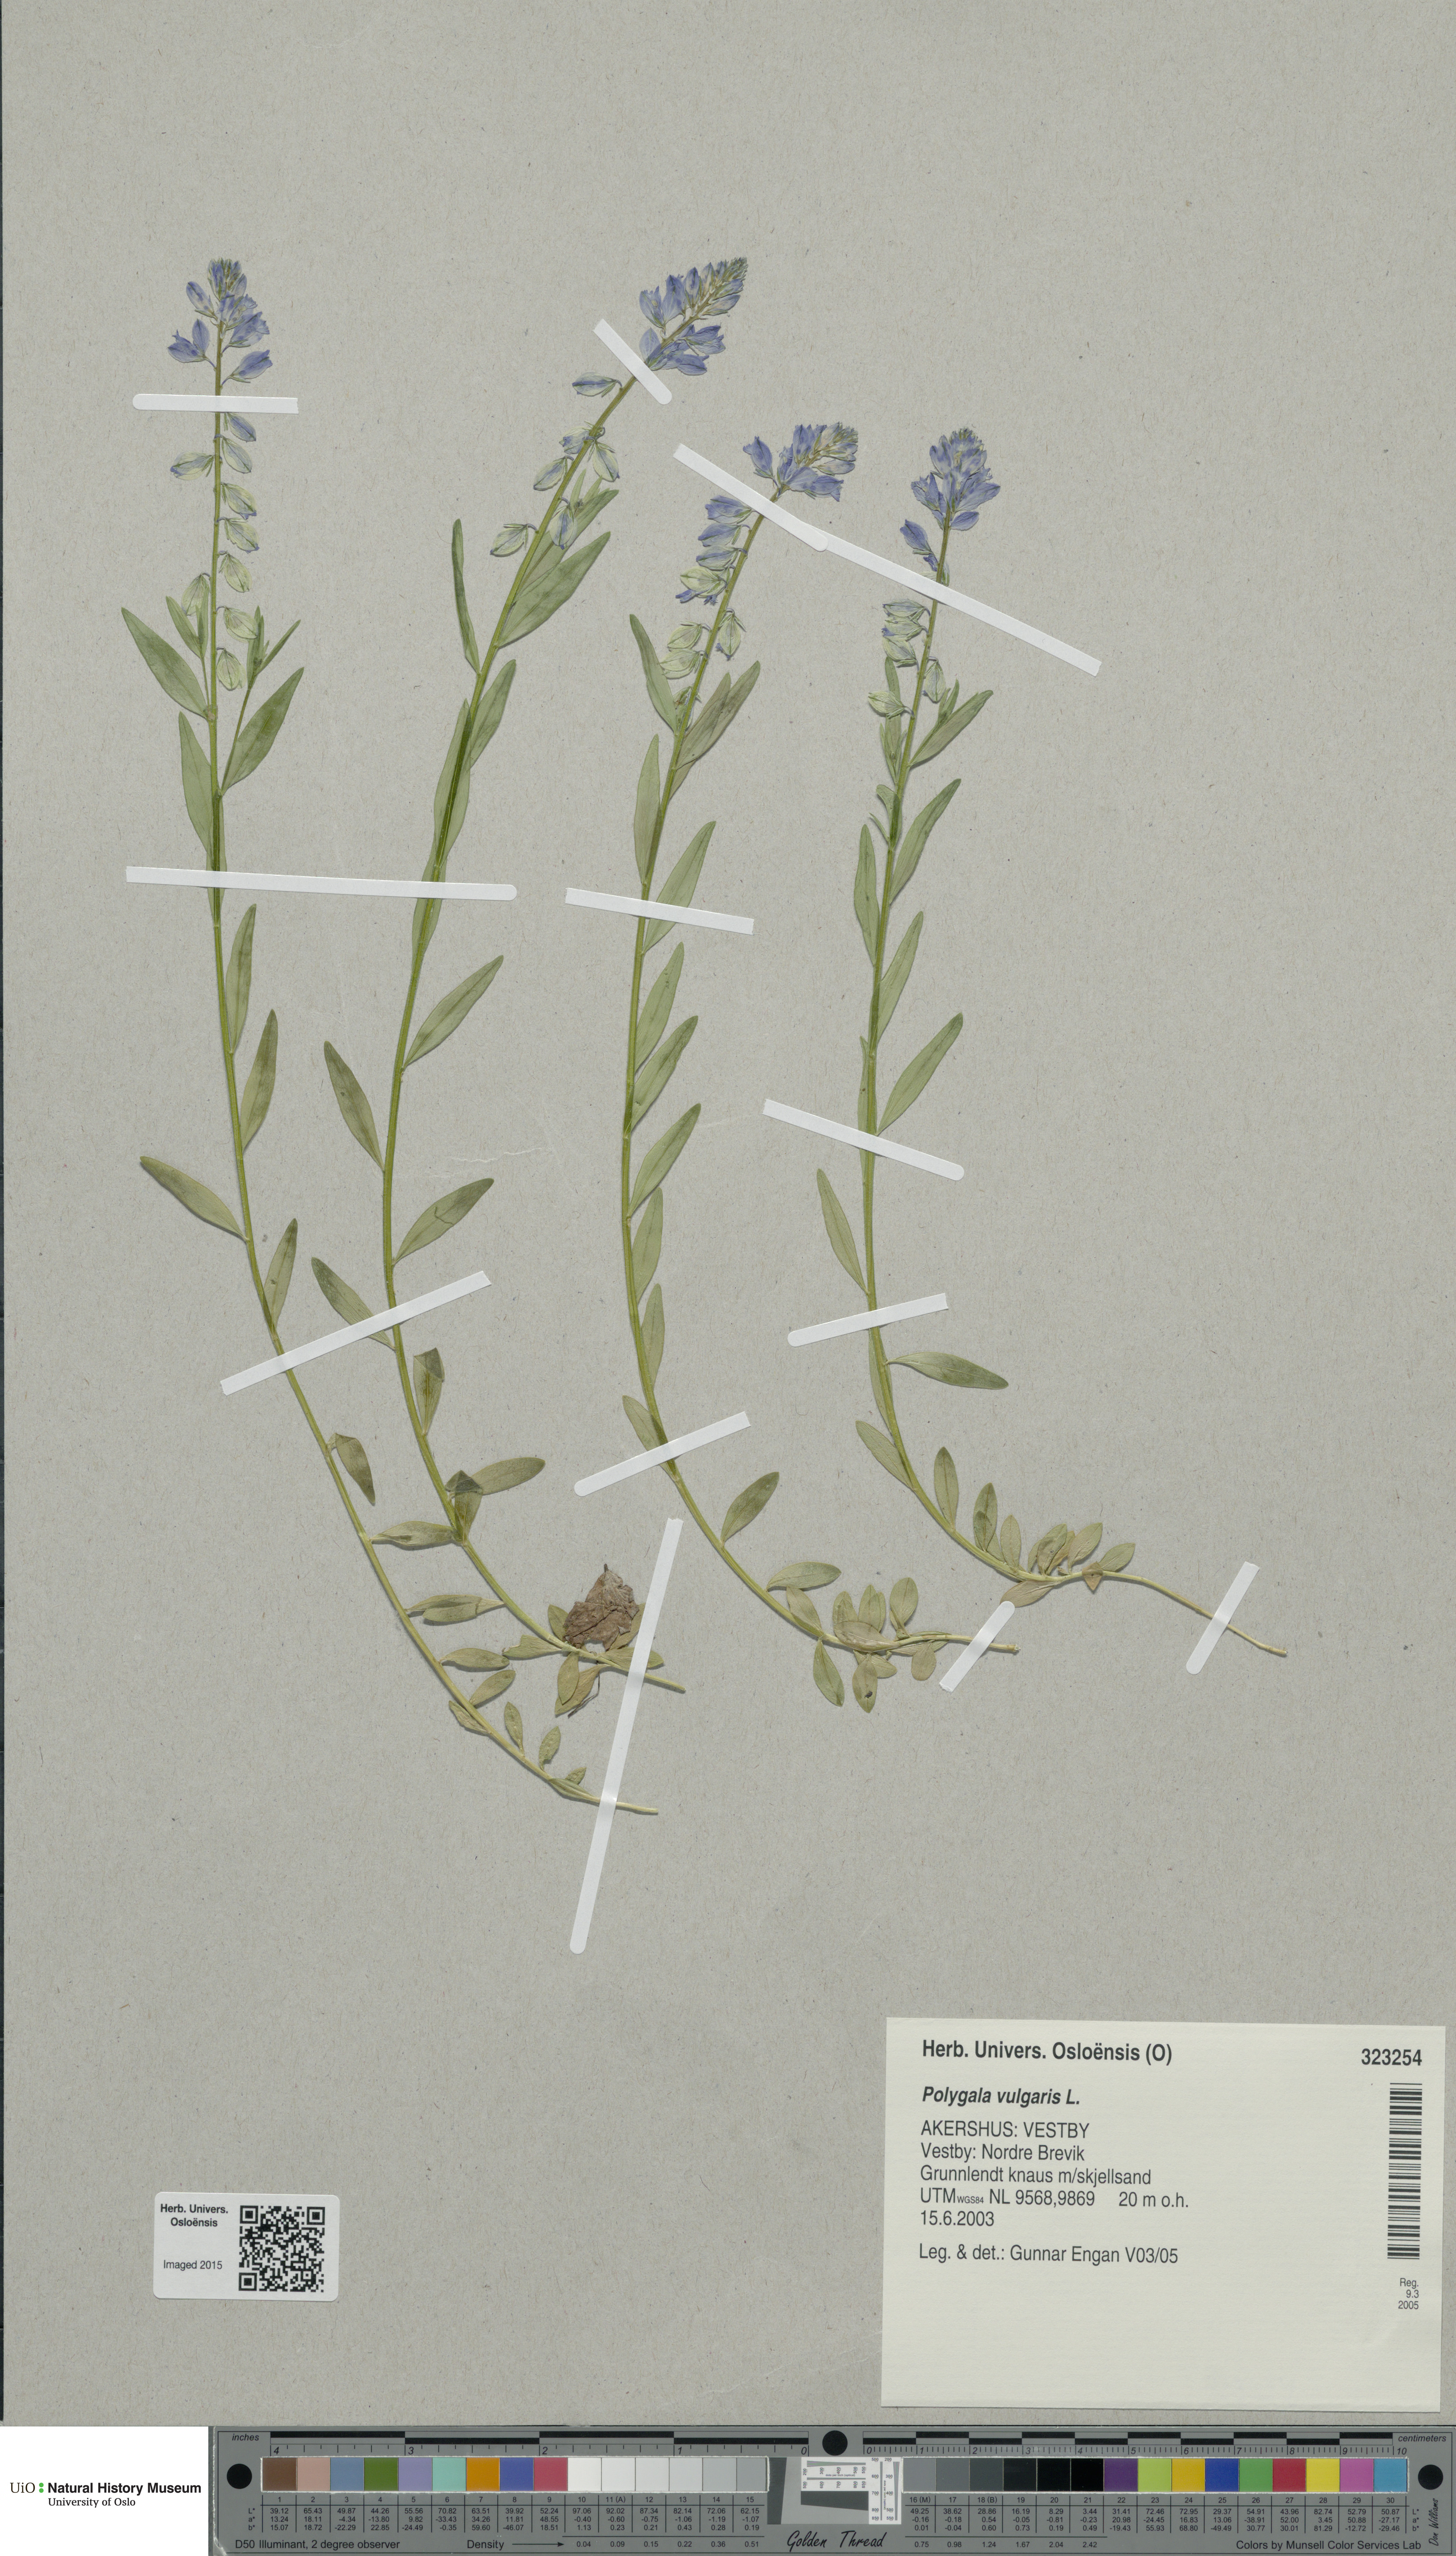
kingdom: Plantae
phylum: Tracheophyta
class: Magnoliopsida
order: Fabales
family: Polygalaceae
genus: Polygala
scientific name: Polygala vulgaris
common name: Common milkwort
